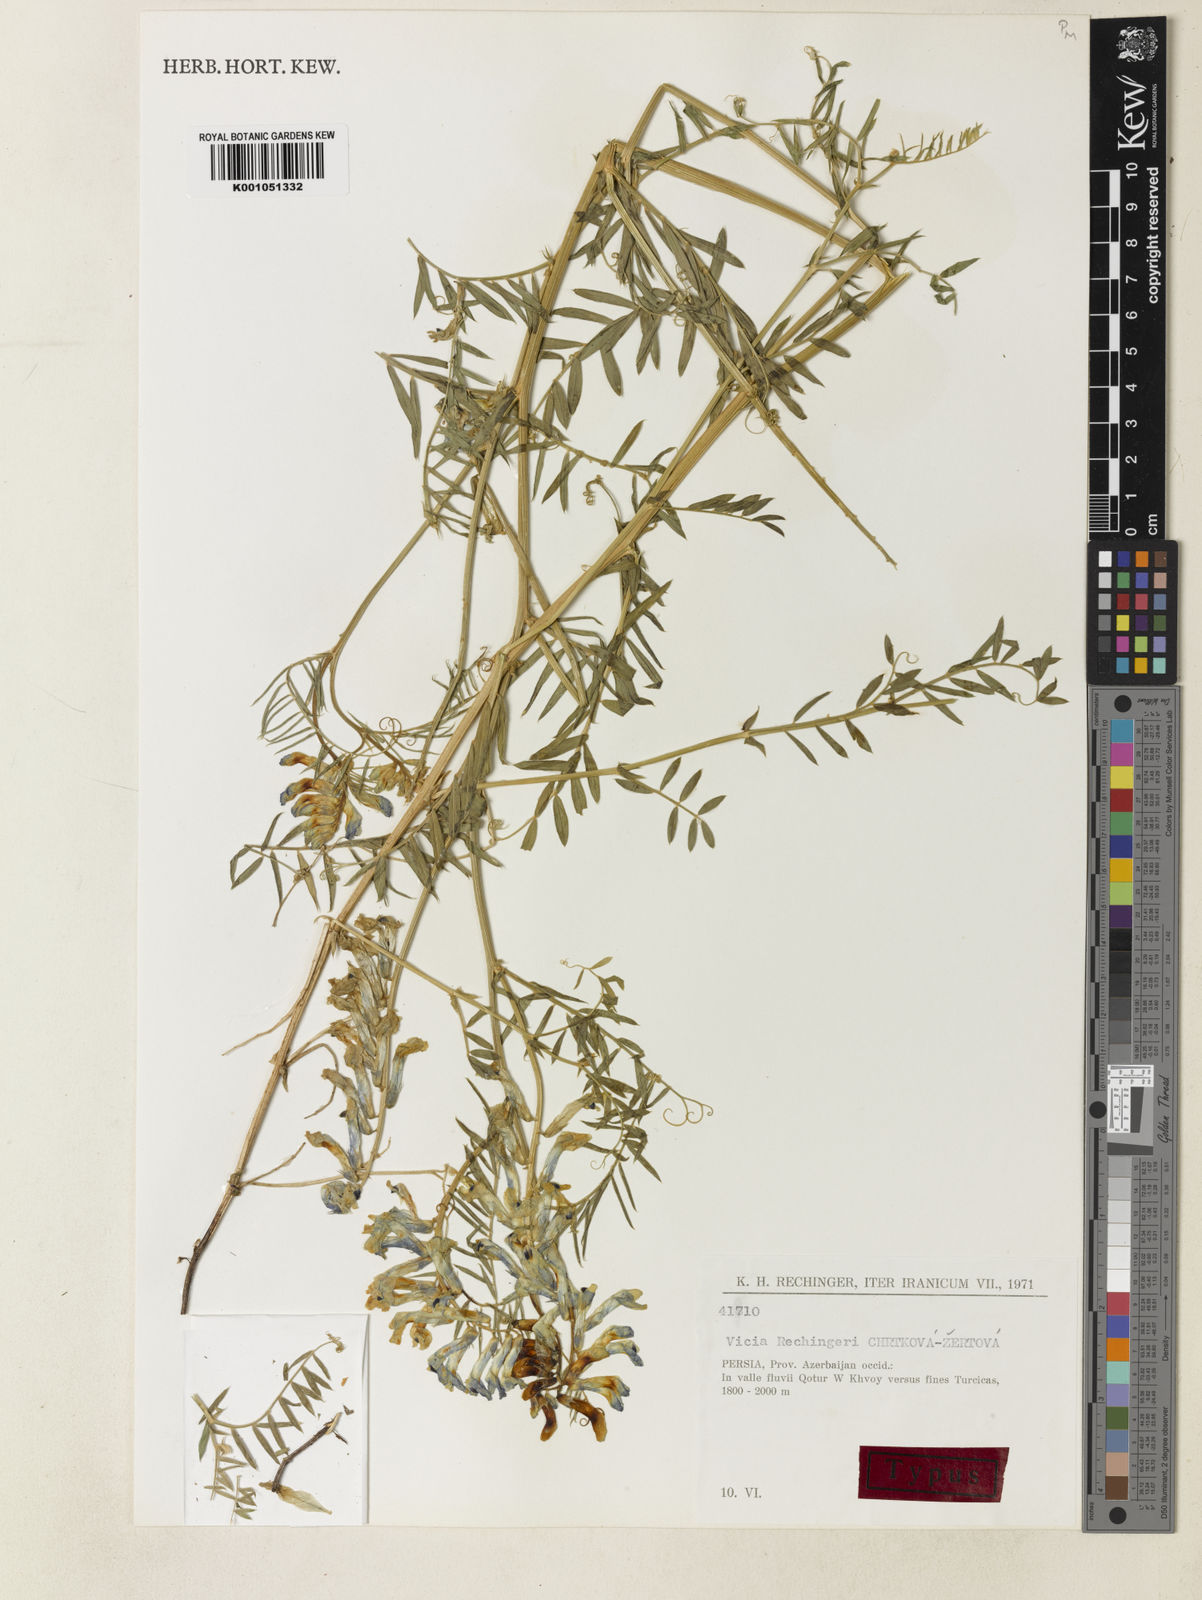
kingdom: Plantae
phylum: Tracheophyta
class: Magnoliopsida
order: Fabales
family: Fabaceae
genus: Vicia
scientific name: Vicia
